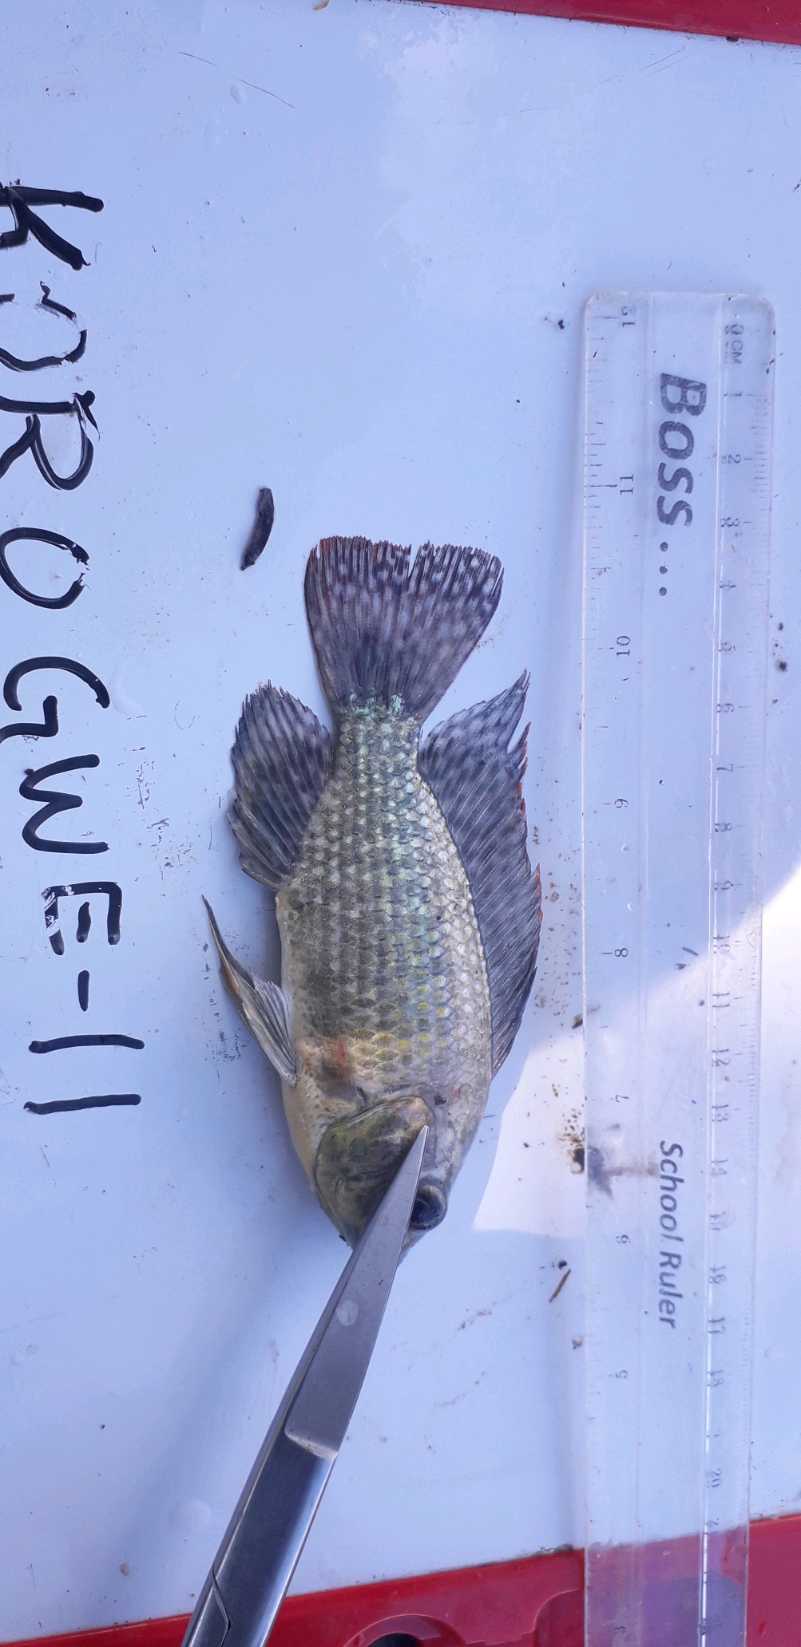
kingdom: Animalia
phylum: Chordata
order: Perciformes
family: Cichlidae
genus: Oreochromis
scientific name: Oreochromis leucostictus
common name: Blue spotted tilapia
